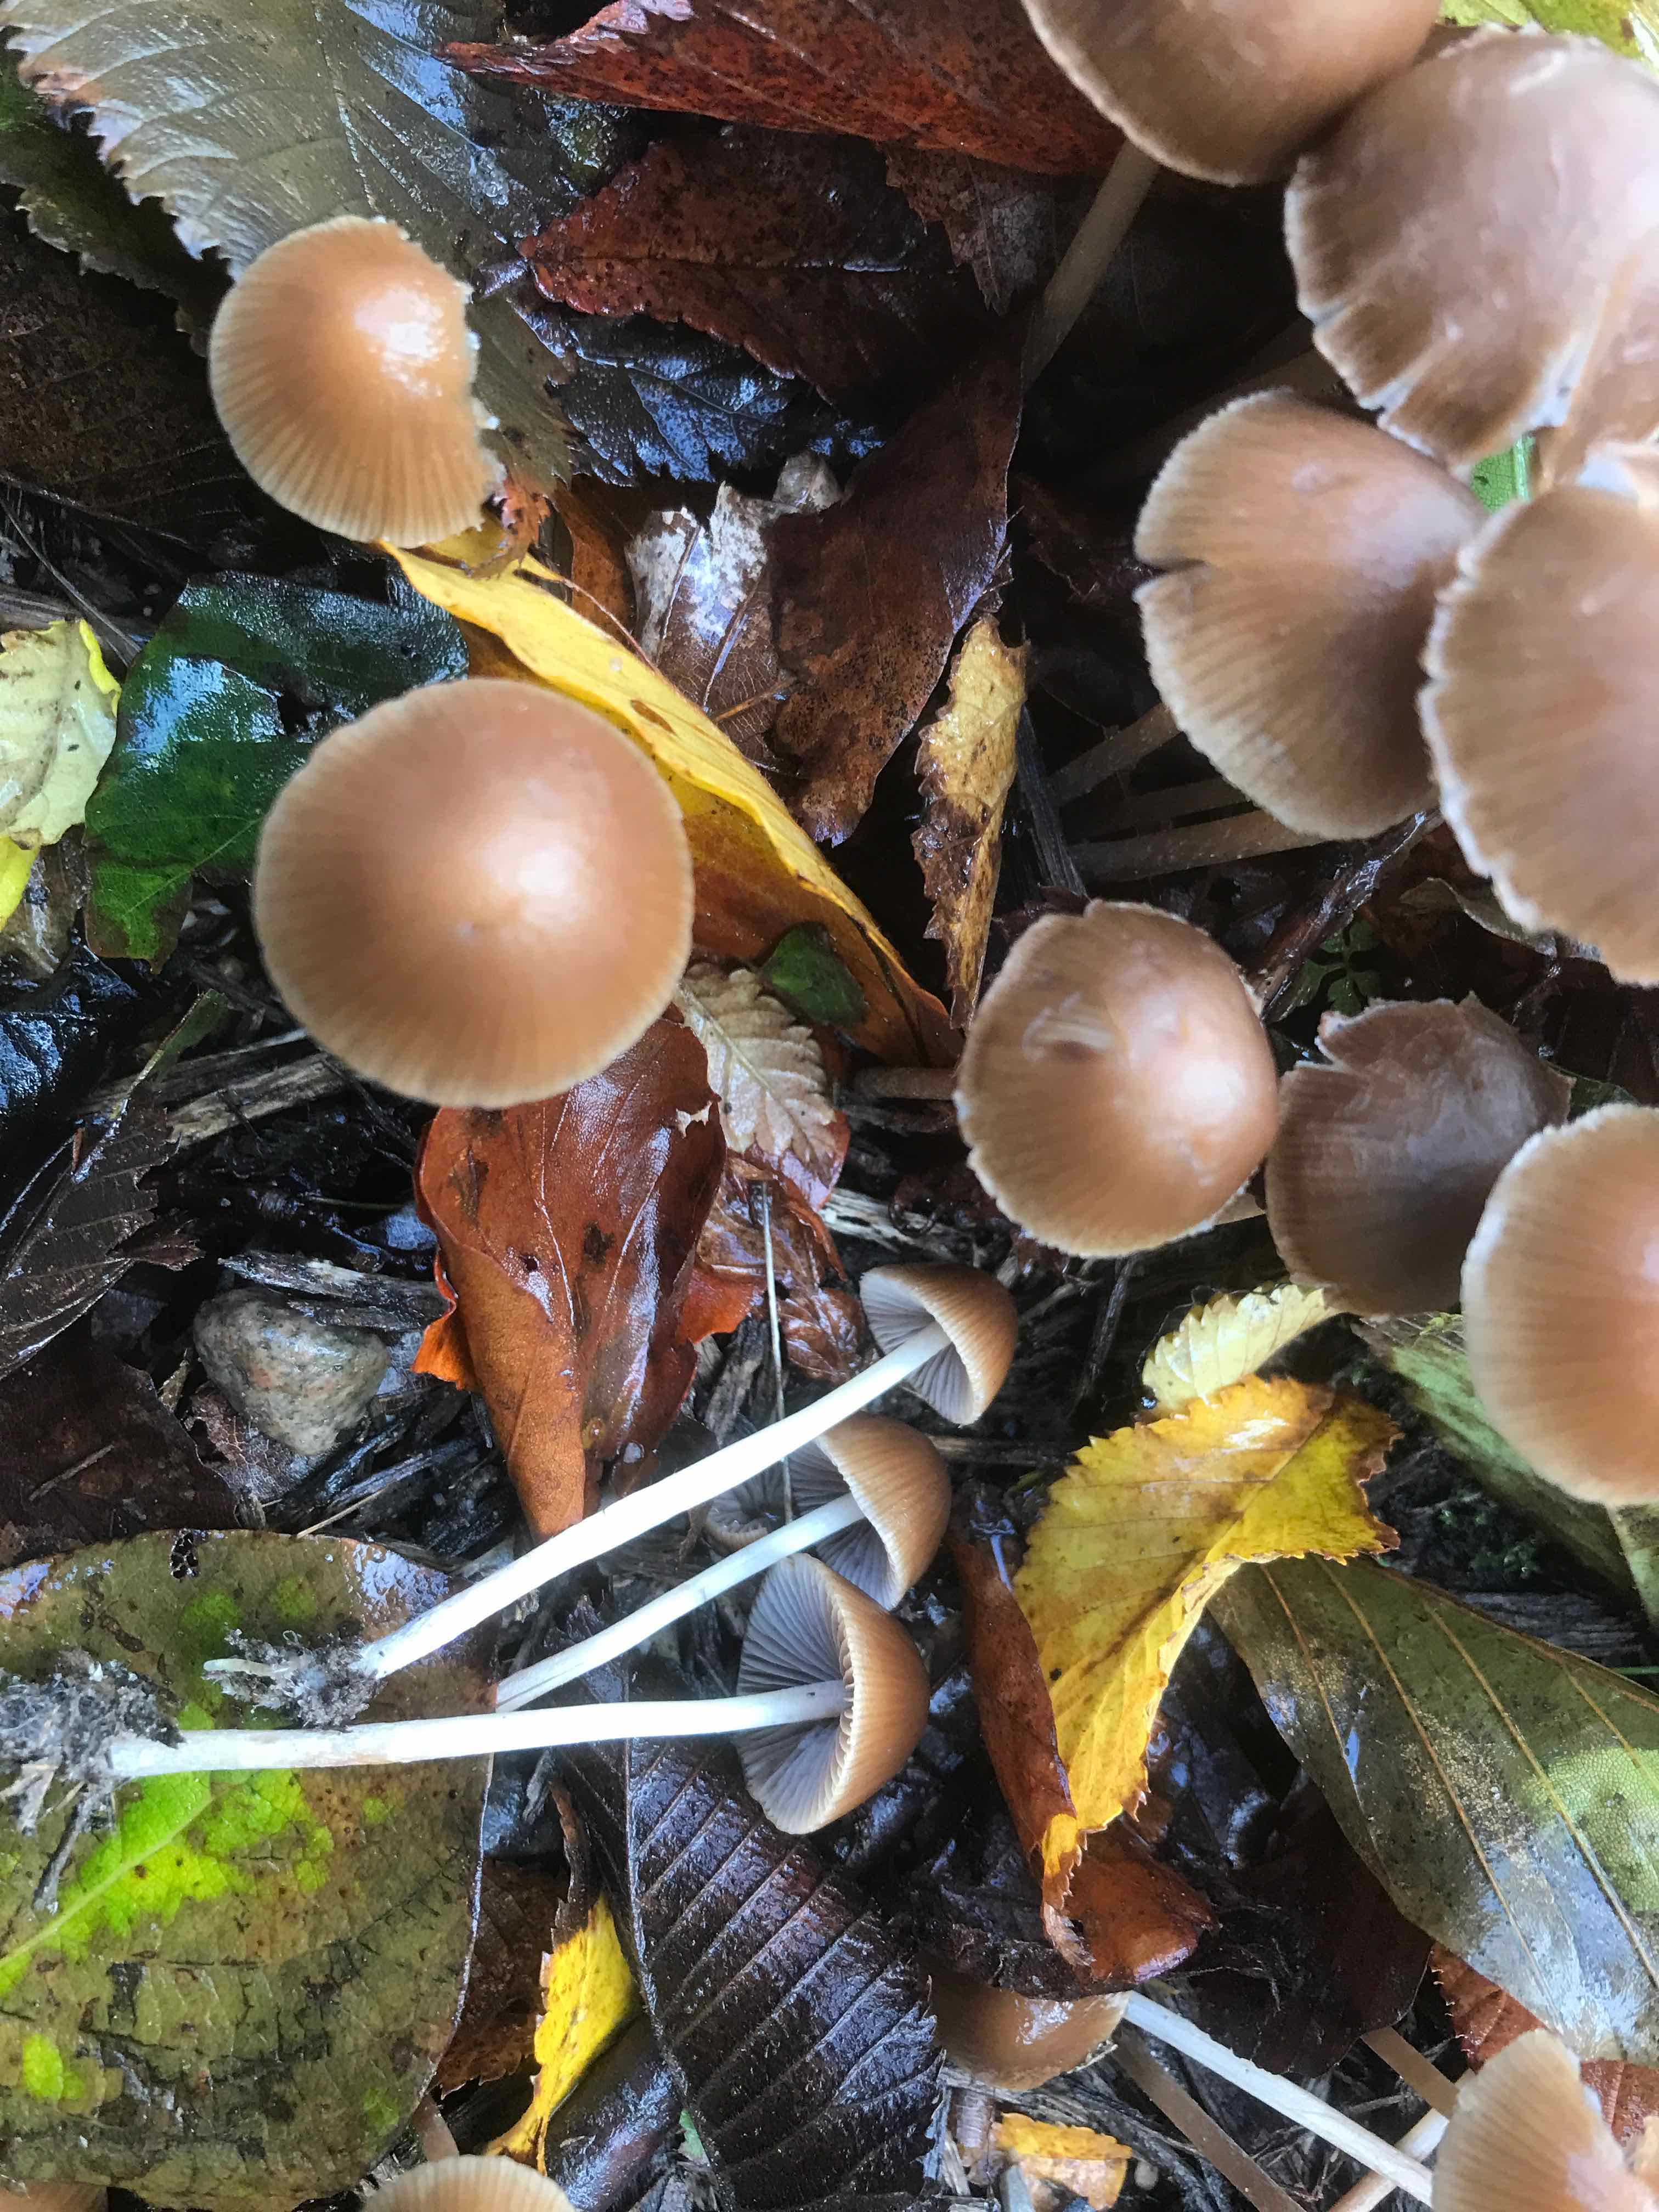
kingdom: Fungi
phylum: Basidiomycota
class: Agaricomycetes
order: Agaricales
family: Psathyrellaceae
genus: Psathyrella
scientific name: Psathyrella
